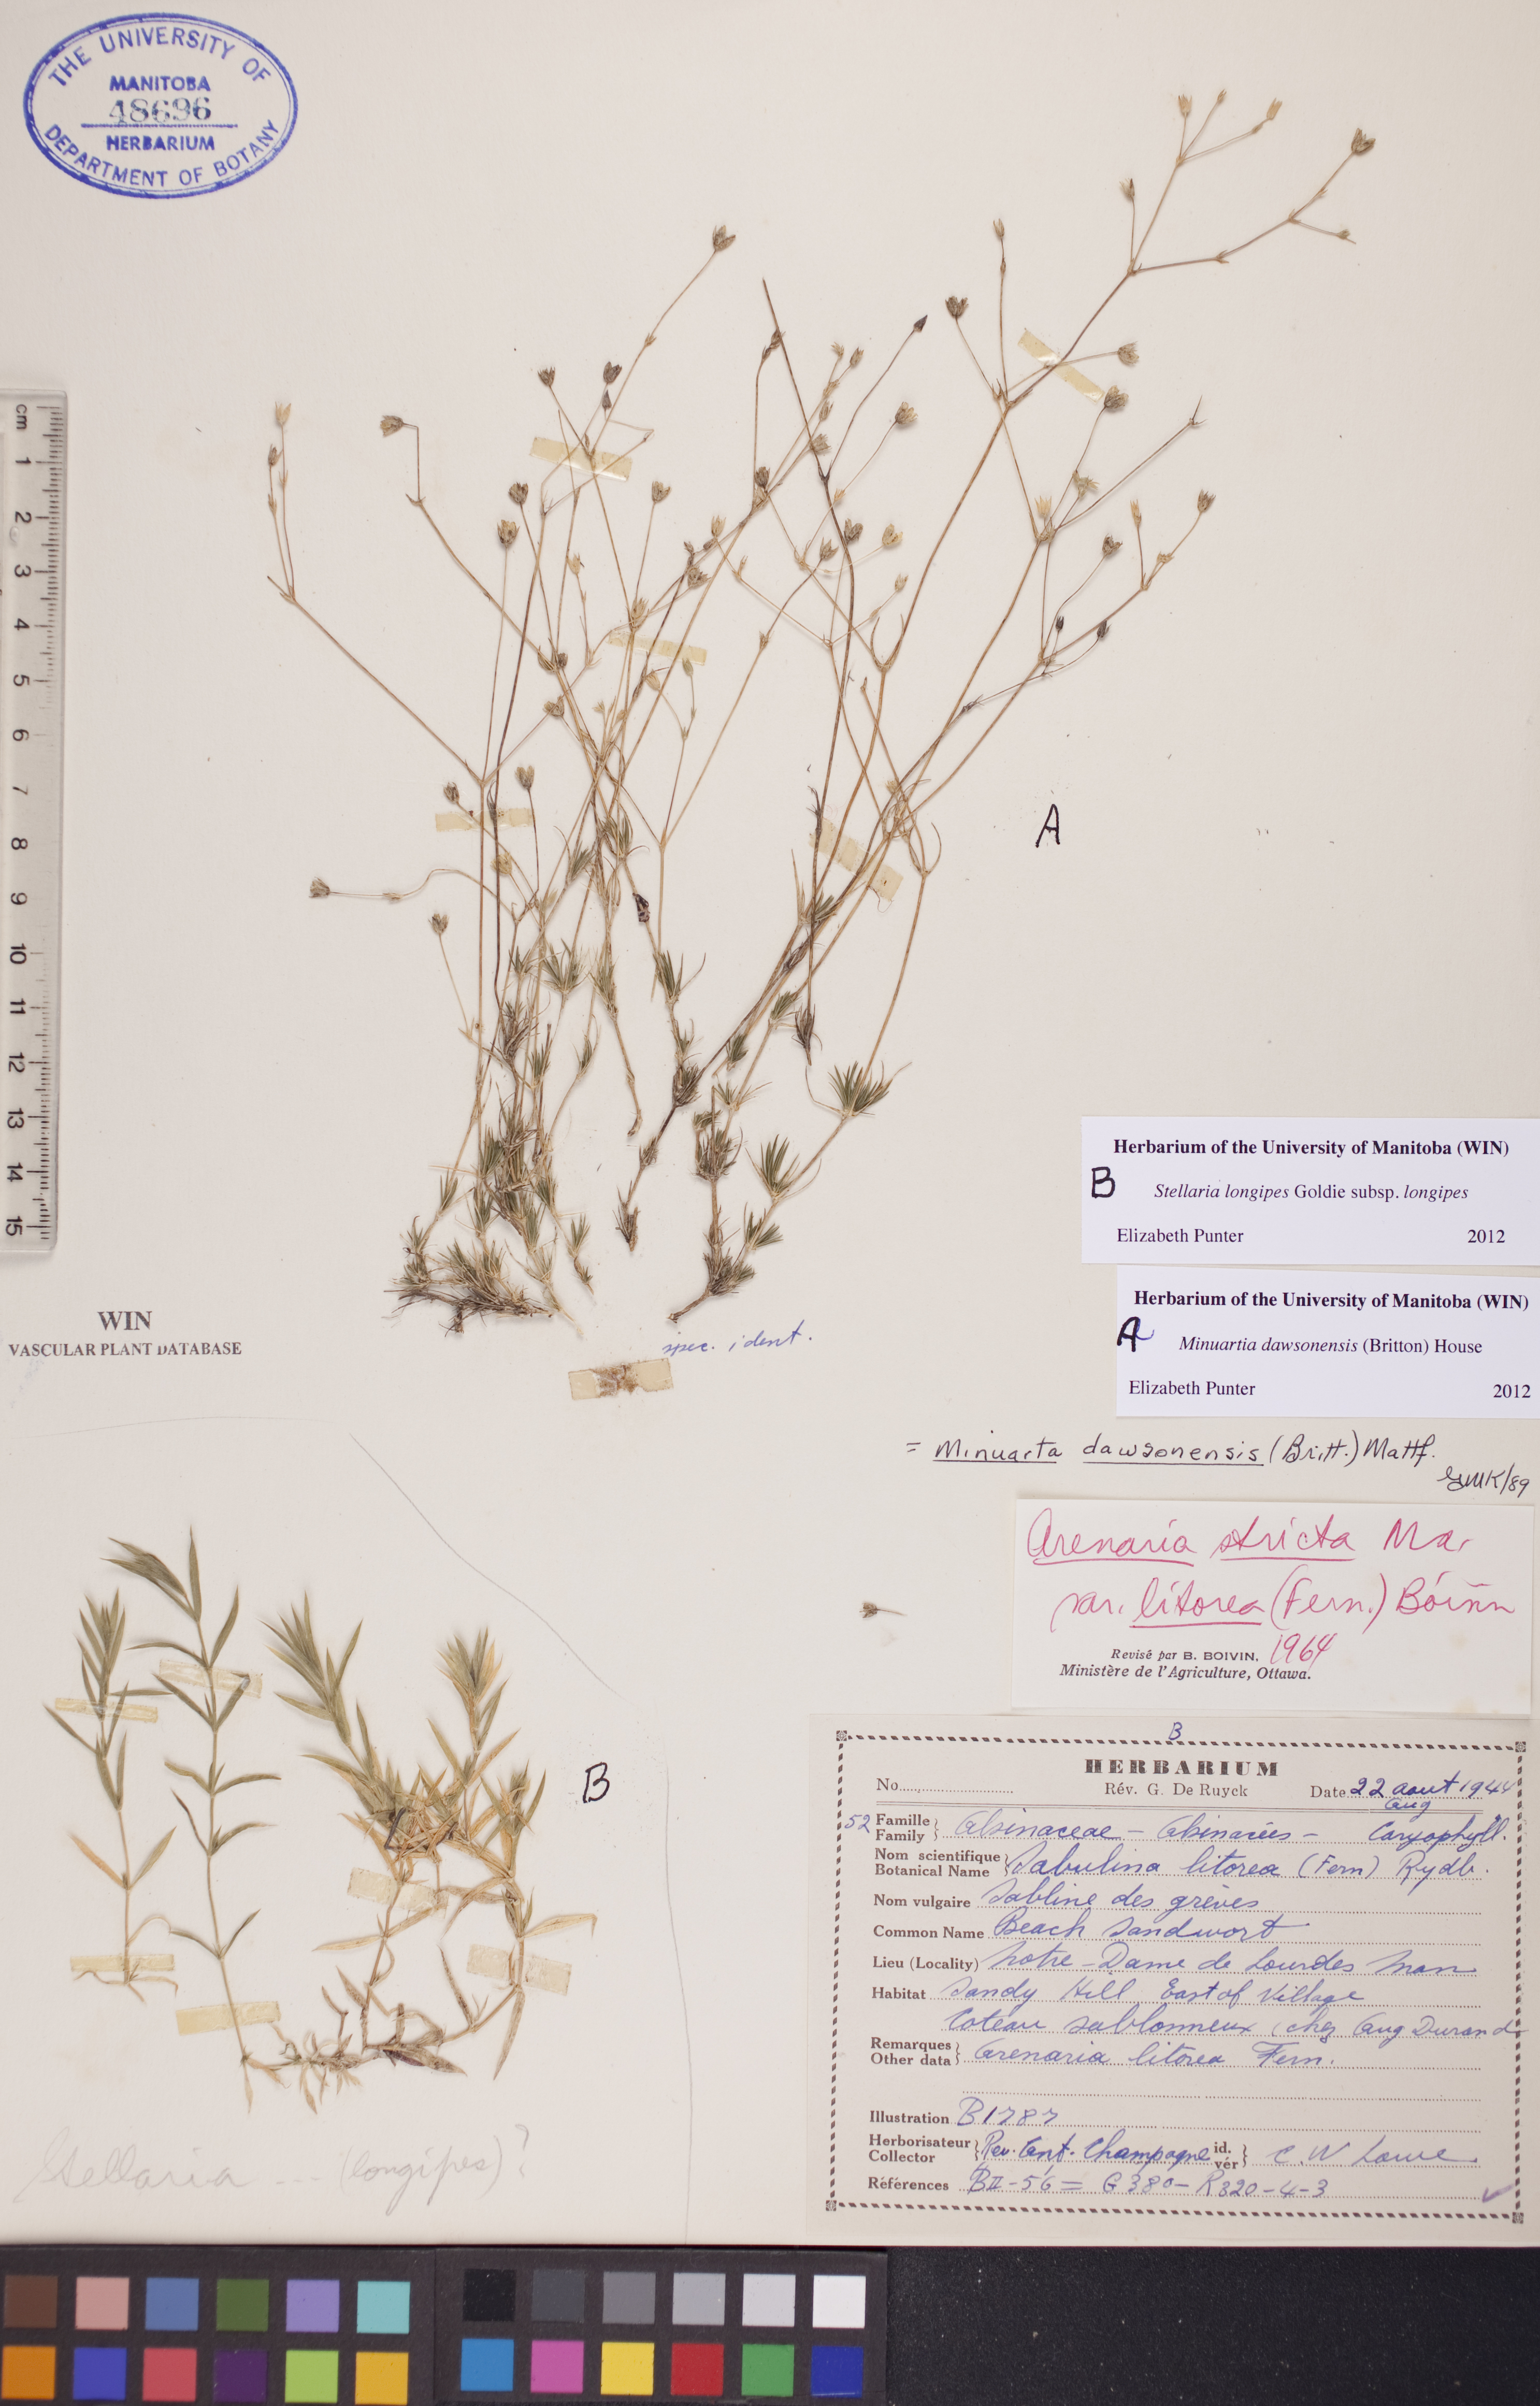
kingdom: Plantae
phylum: Tracheophyta
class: Magnoliopsida
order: Caryophyllales
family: Caryophyllaceae
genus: Stellaria
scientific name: Stellaria longipes
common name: Goldie's starwort
